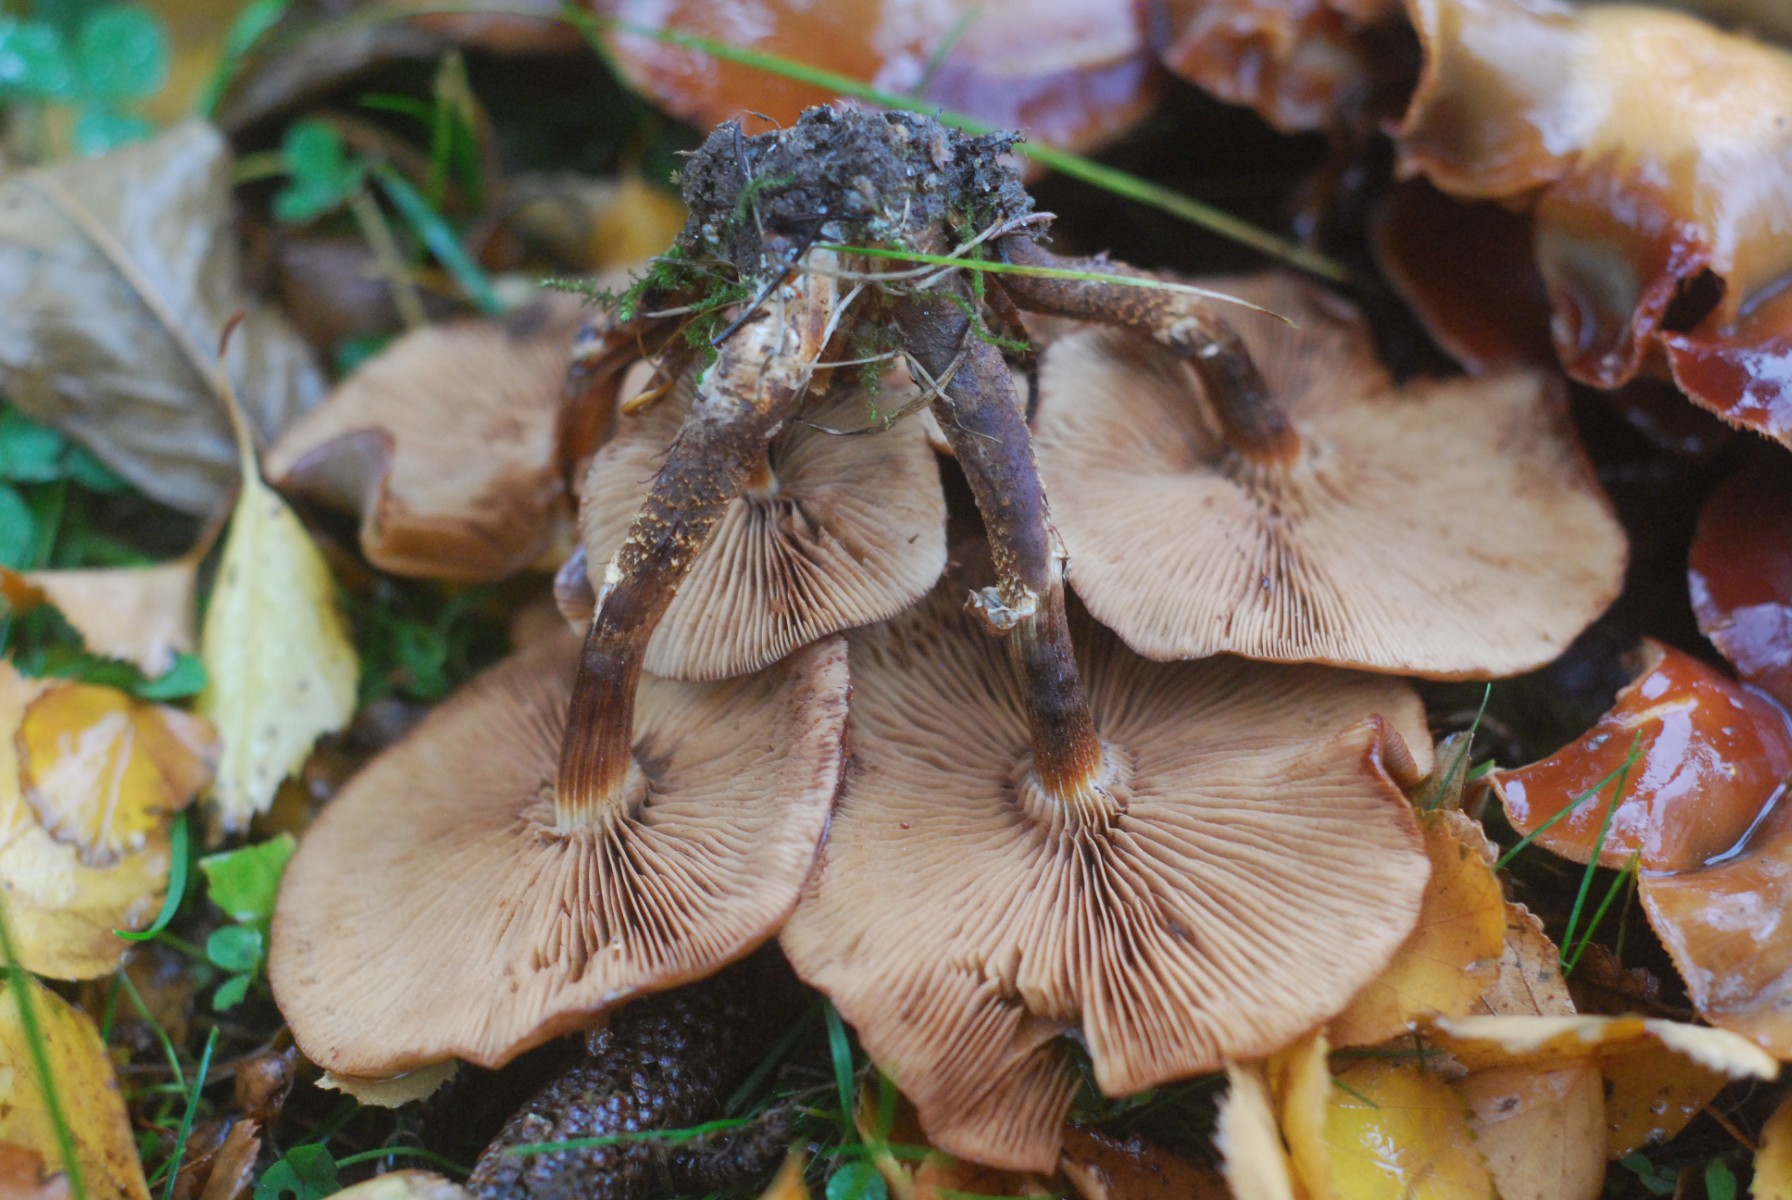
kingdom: Fungi
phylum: Basidiomycota
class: Agaricomycetes
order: Agaricales
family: Strophariaceae
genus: Kuehneromyces
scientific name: Kuehneromyces mutabilis
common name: foranderlig skælhat
